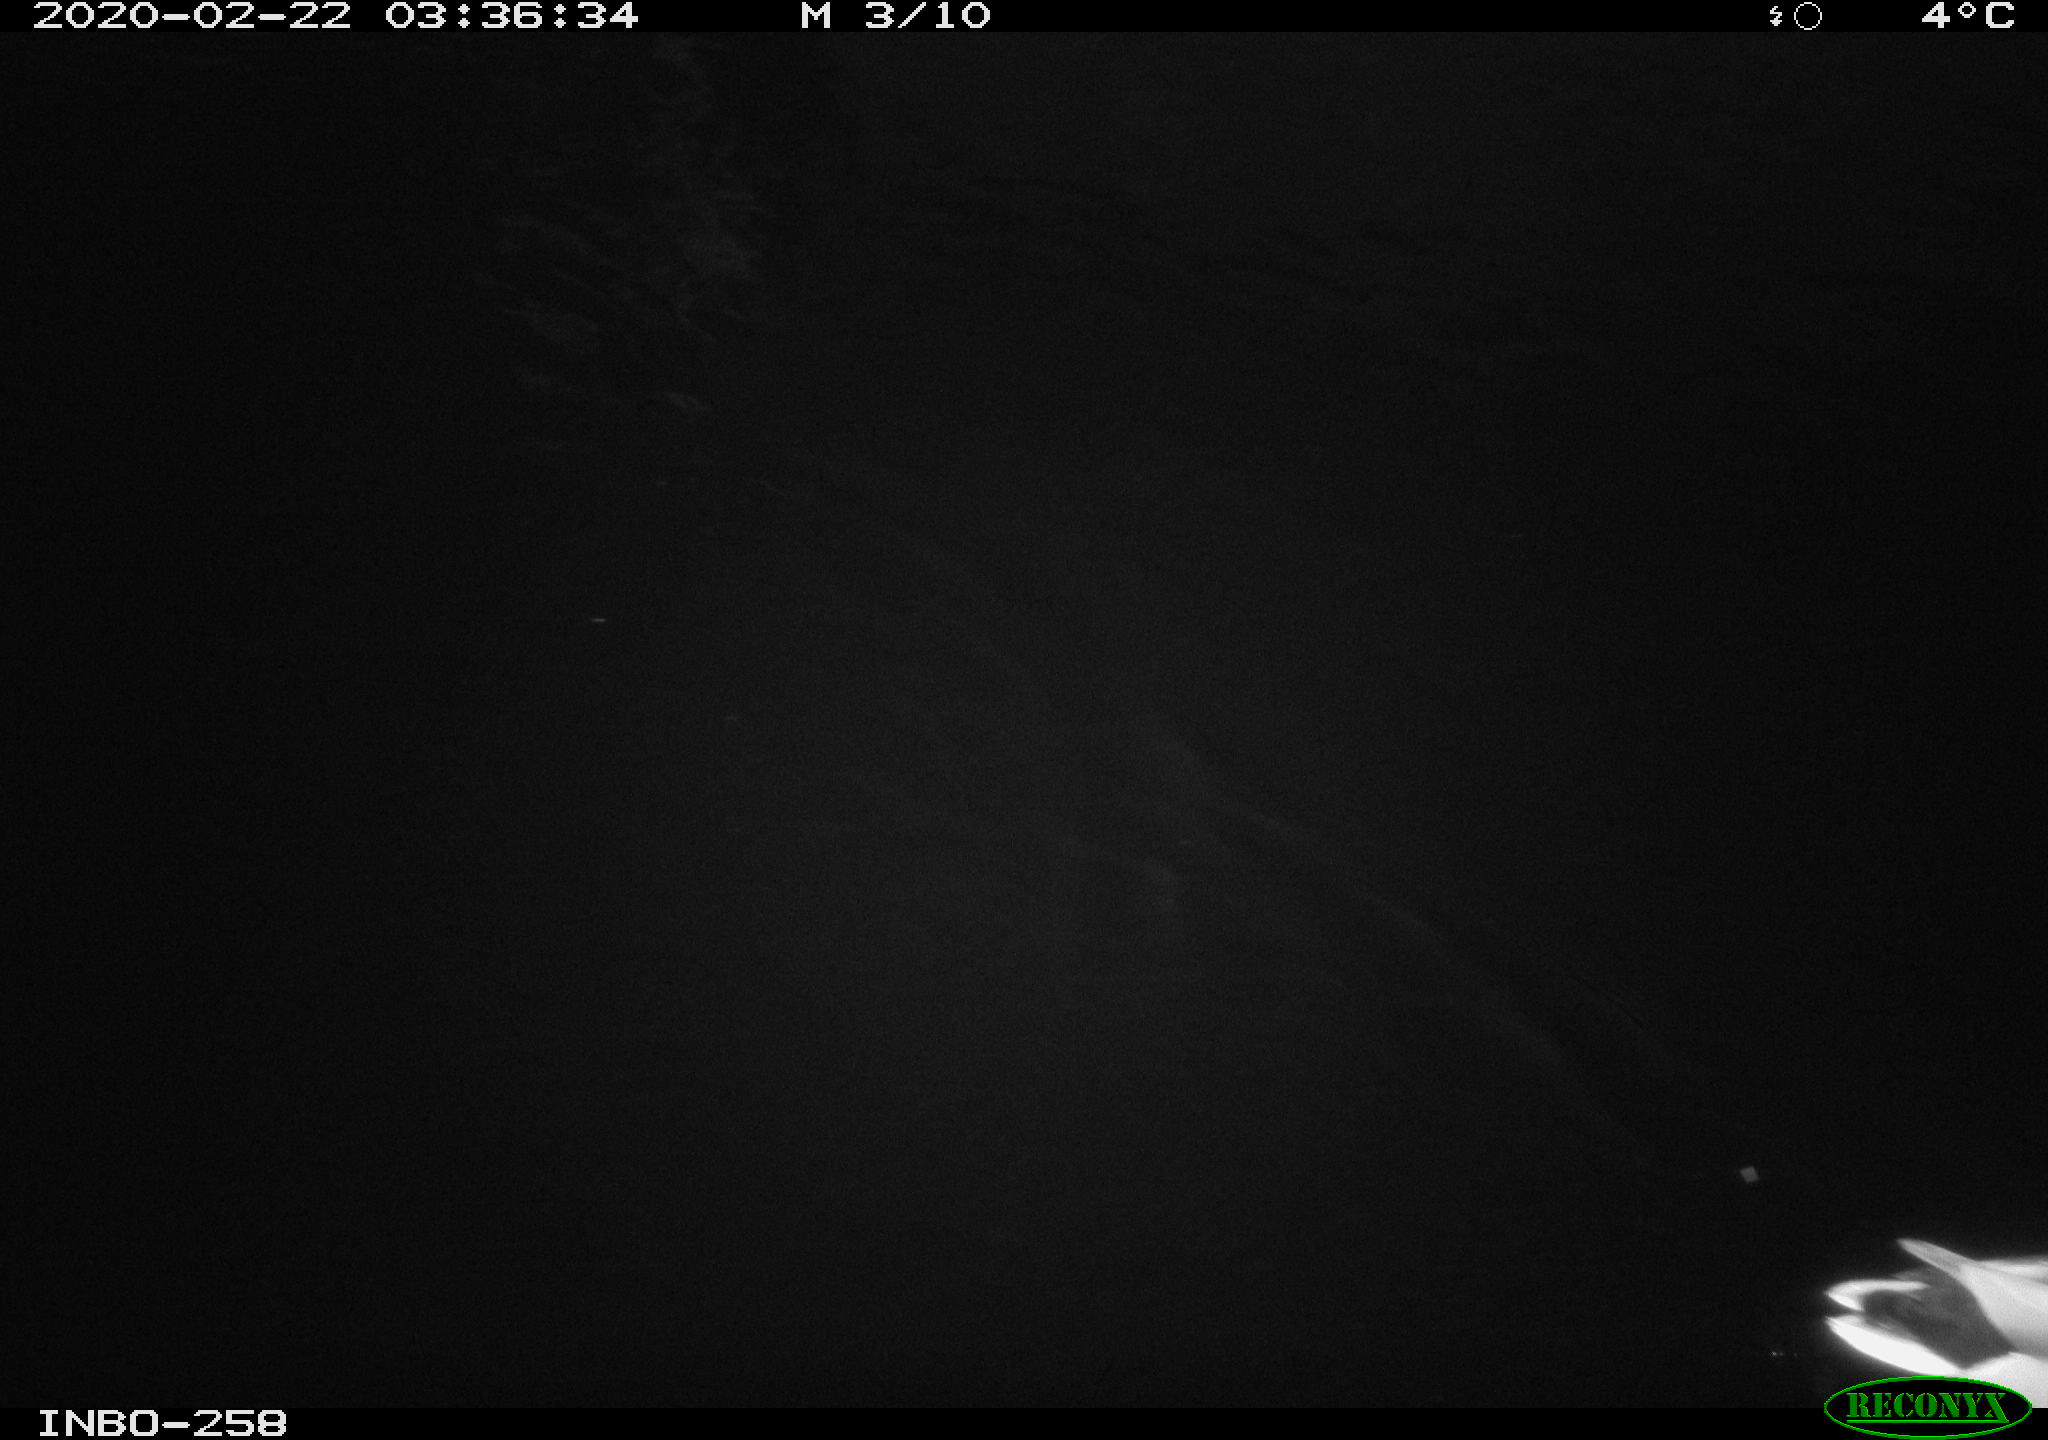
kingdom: Animalia
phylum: Chordata
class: Aves
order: Anseriformes
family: Anatidae
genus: Anas
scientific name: Anas platyrhynchos
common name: Mallard
